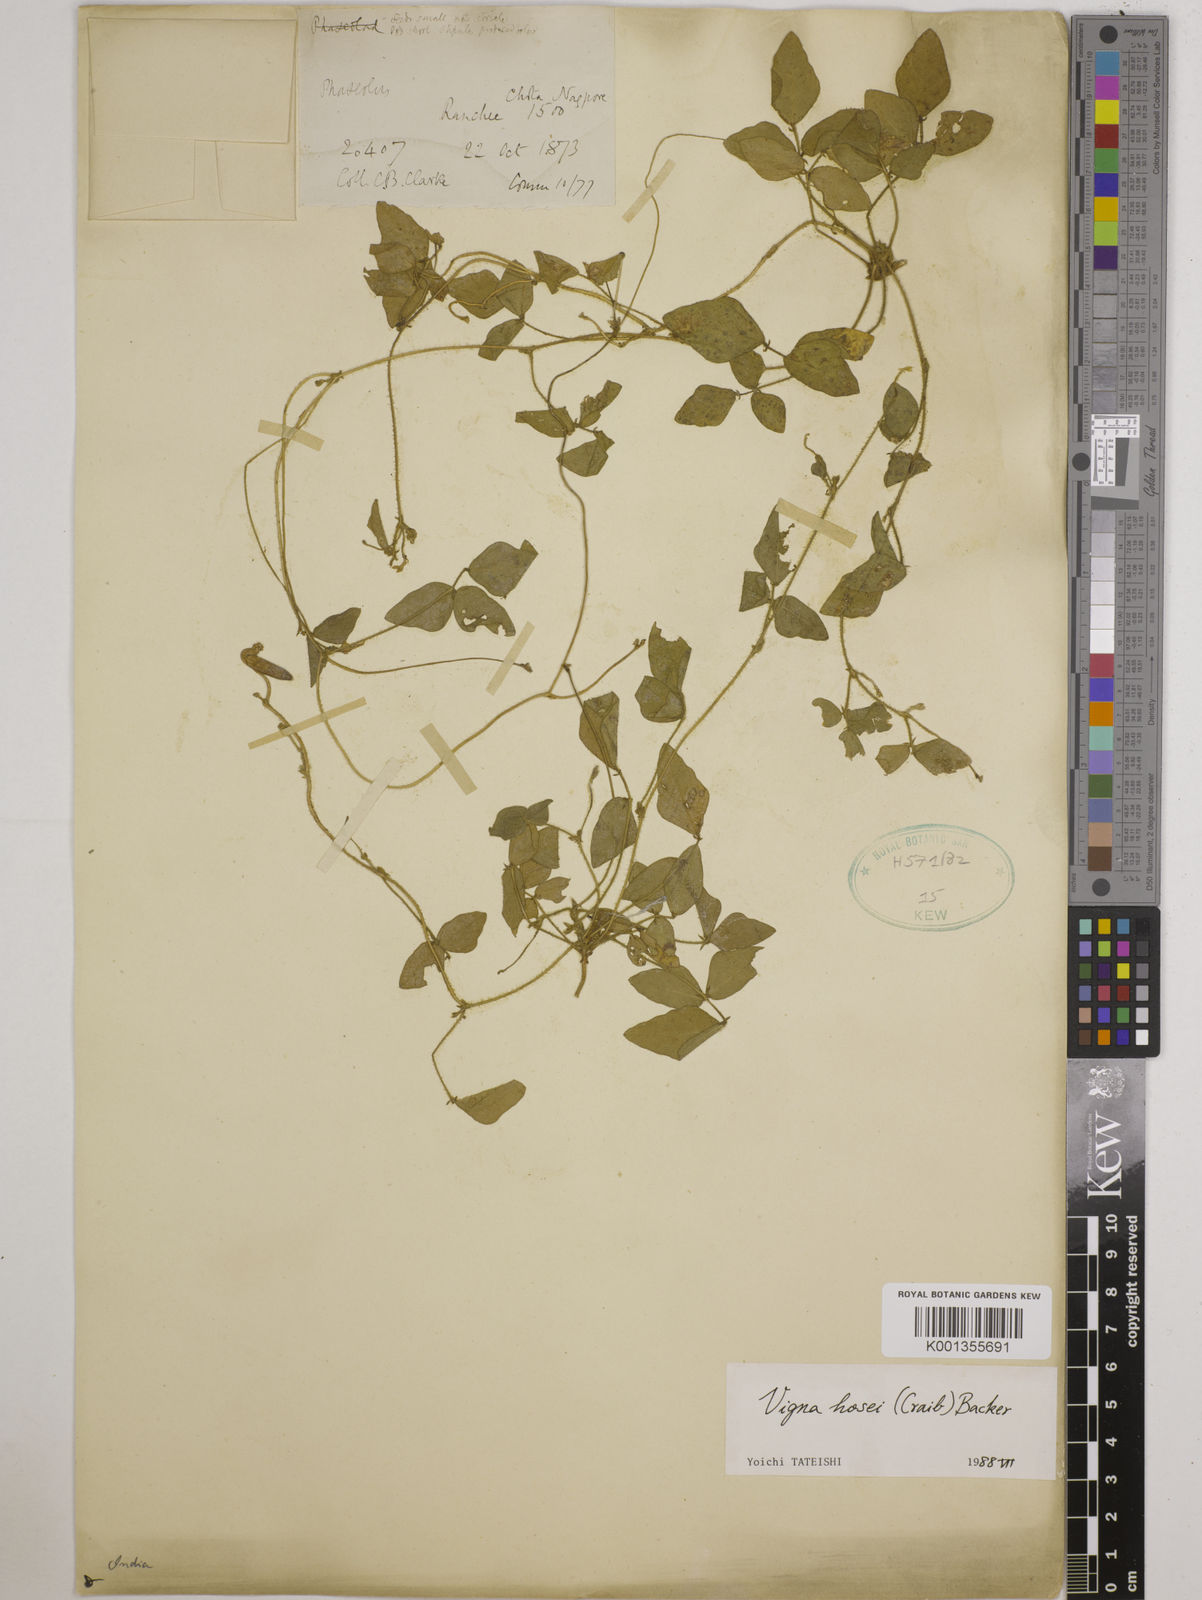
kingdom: Plantae
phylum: Tracheophyta
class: Magnoliopsida
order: Fabales
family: Fabaceae
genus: Vigna
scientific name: Vigna hosei
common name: Sarawak-bean
